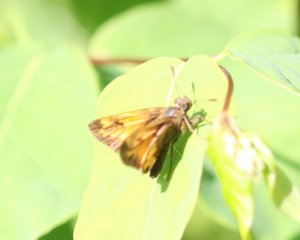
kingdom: Animalia
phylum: Arthropoda
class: Insecta
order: Lepidoptera
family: Hesperiidae
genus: Lon
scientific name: Lon hobomok
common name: Hobomok Skipper
